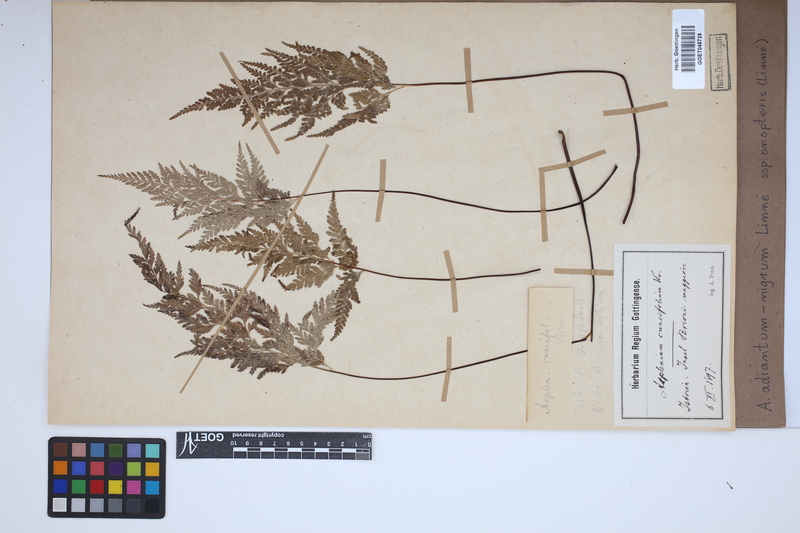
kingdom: Plantae
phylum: Tracheophyta
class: Polypodiopsida
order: Polypodiales
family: Aspleniaceae
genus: Asplenium
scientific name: Asplenium onopteris
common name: Irish spleenwort
